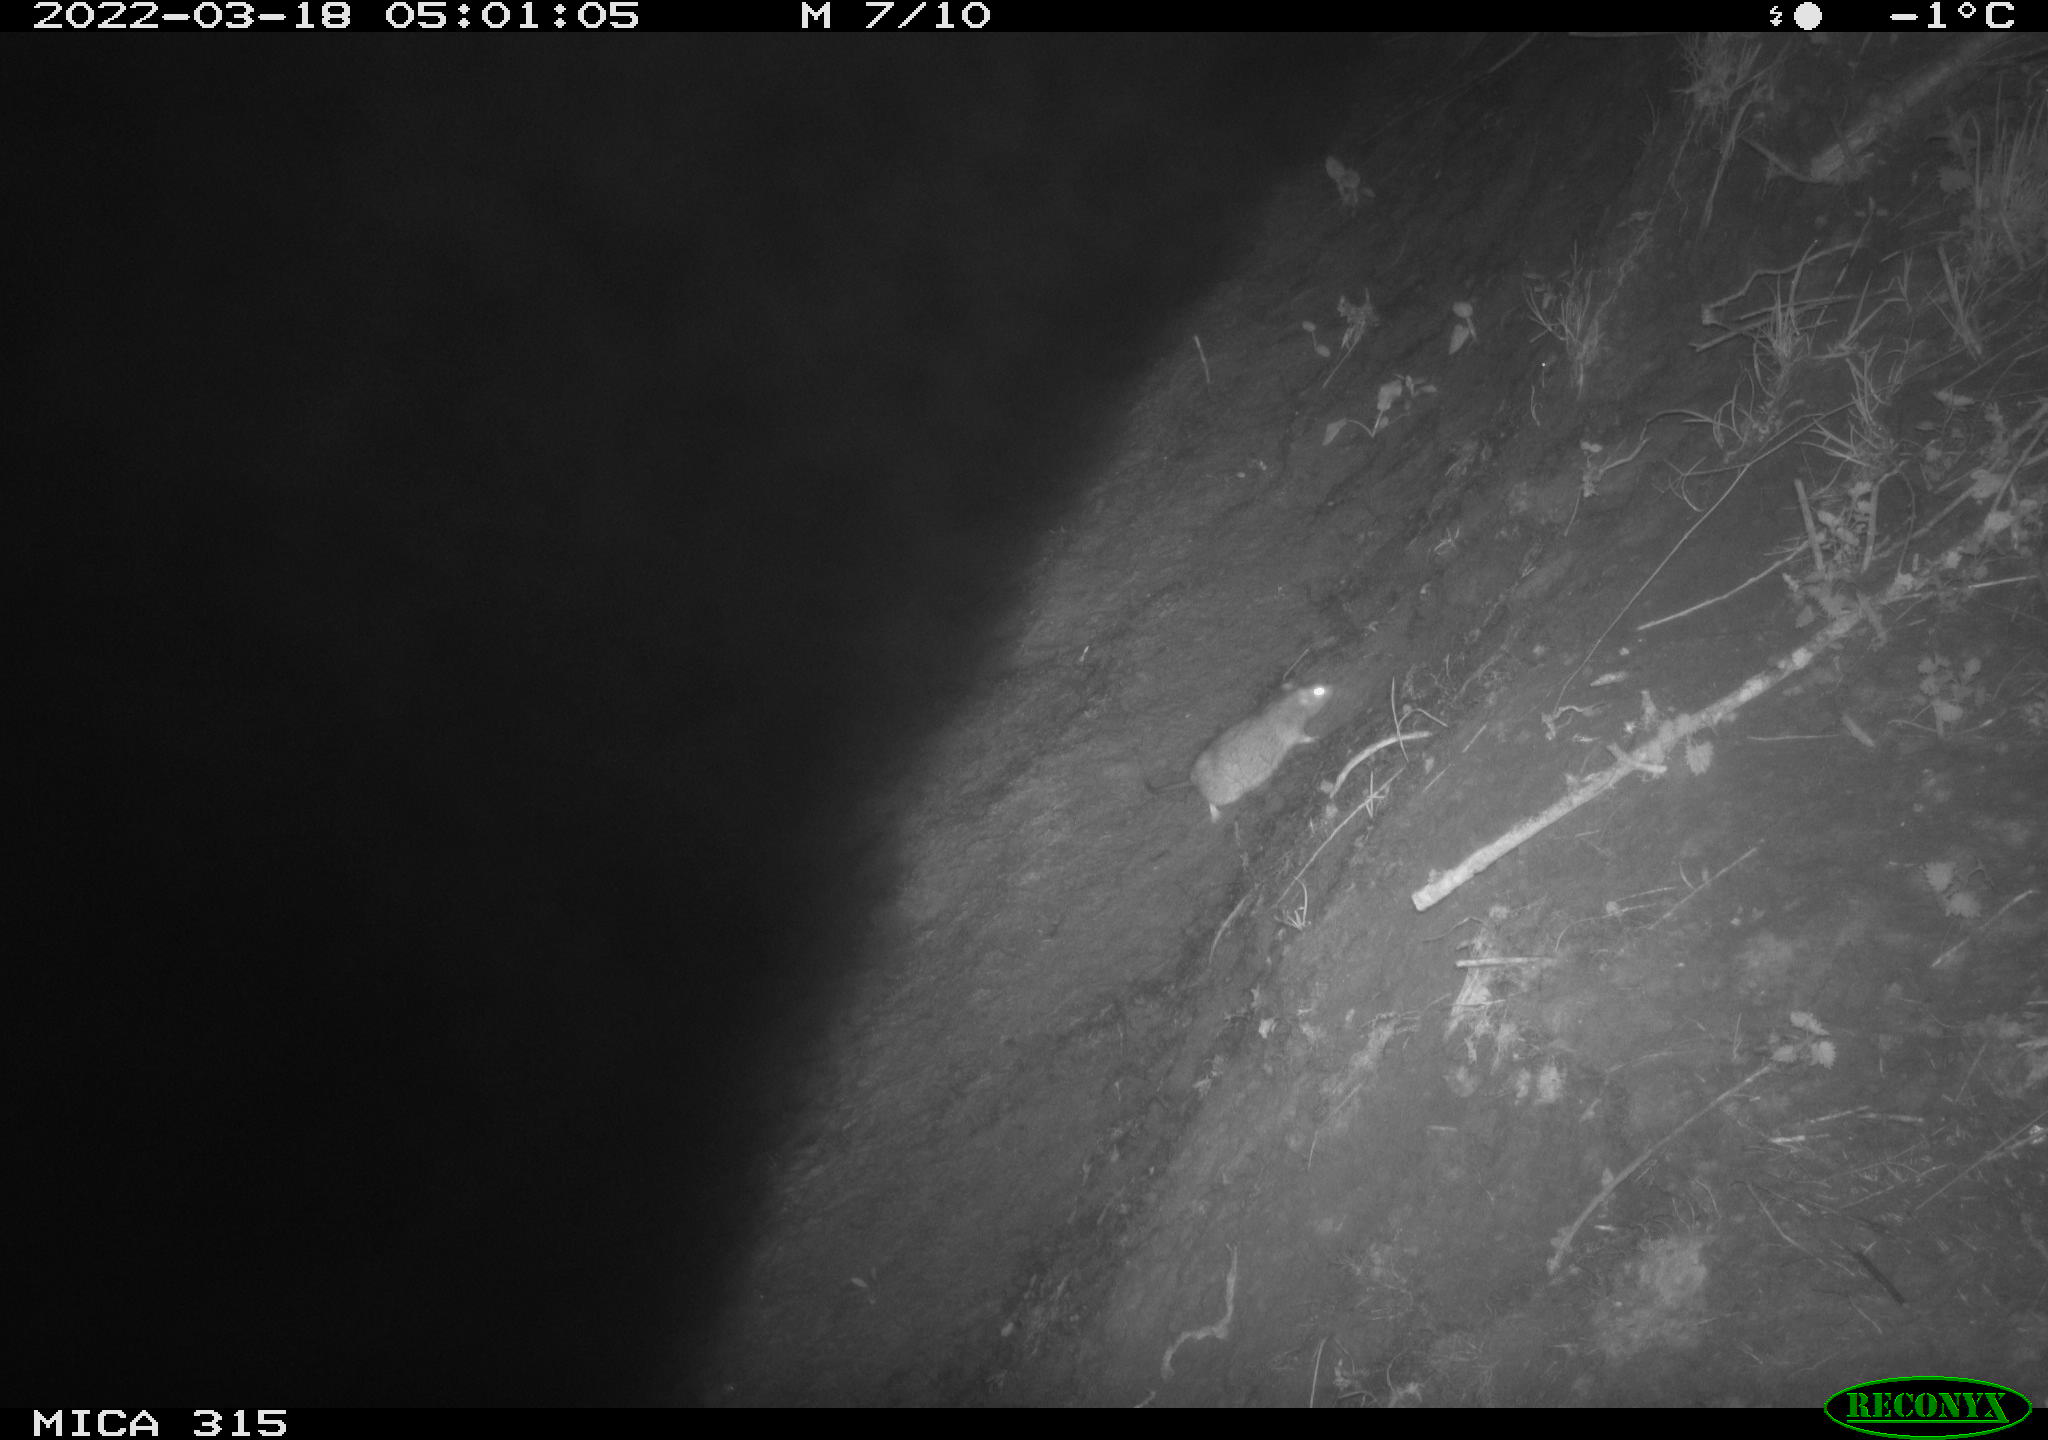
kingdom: Animalia
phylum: Chordata
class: Mammalia
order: Rodentia
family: Muridae
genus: Rattus
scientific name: Rattus norvegicus
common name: Brown rat
